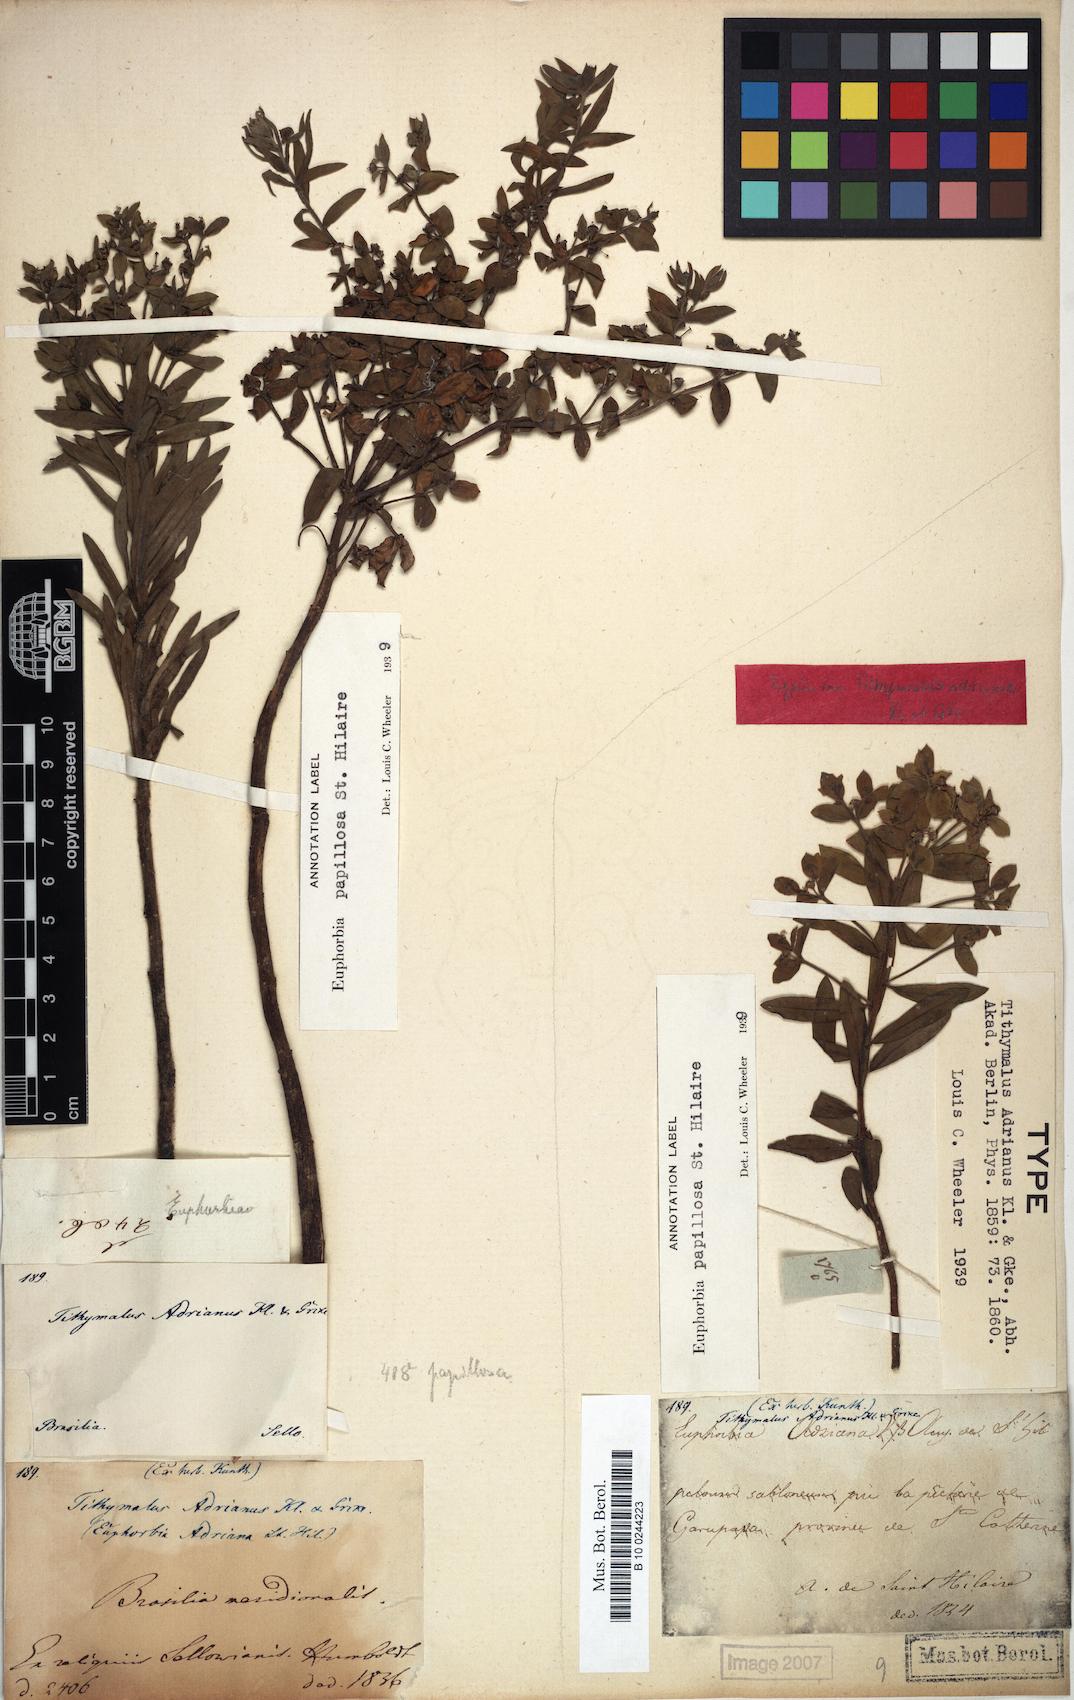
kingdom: Plantae
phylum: Tracheophyta
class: Magnoliopsida
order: Malpighiales
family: Euphorbiaceae
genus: Euphorbia
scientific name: Euphorbia papillosa
